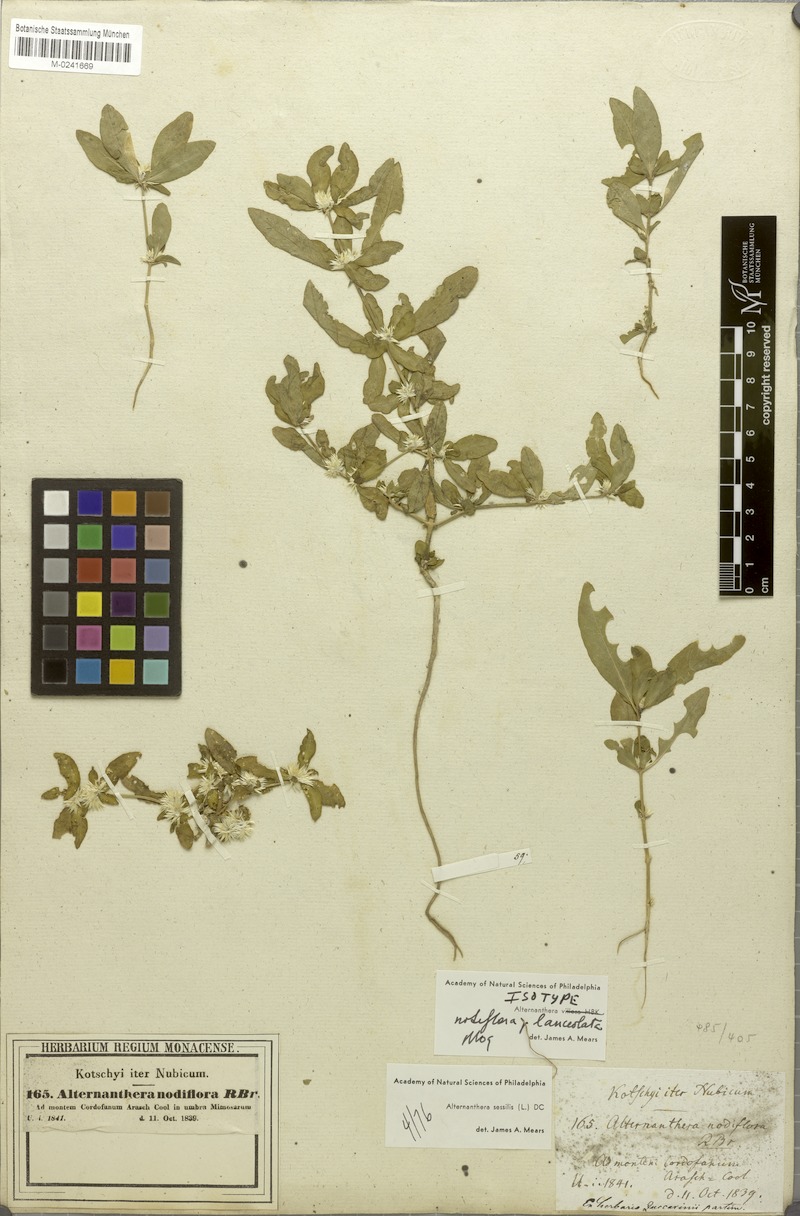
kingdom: Plantae
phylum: Tracheophyta
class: Magnoliopsida
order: Caryophyllales
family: Amaranthaceae
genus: Alternanthera
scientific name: Alternanthera sessilis
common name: Sessile joyweed
